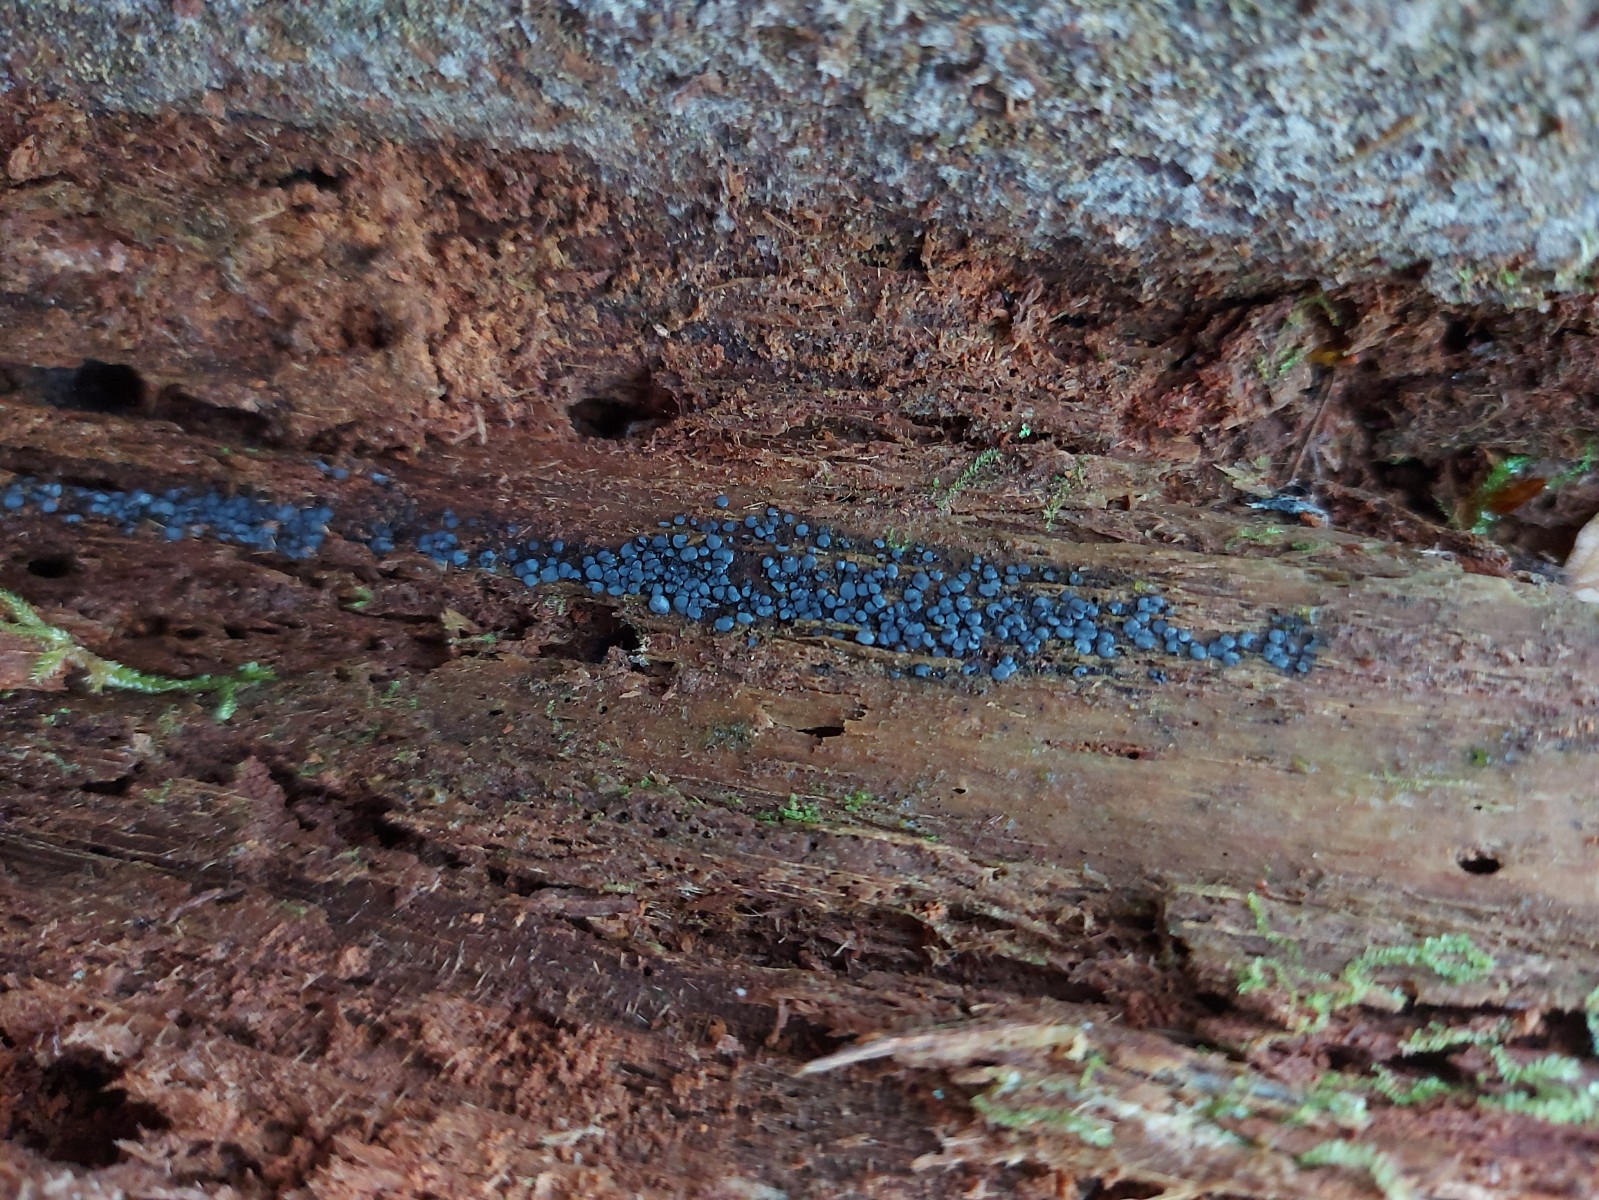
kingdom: Fungi
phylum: Ascomycota
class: Leotiomycetes
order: Helotiales
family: Mollisiaceae
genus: Mollisia
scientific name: Mollisia
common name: gråskive
